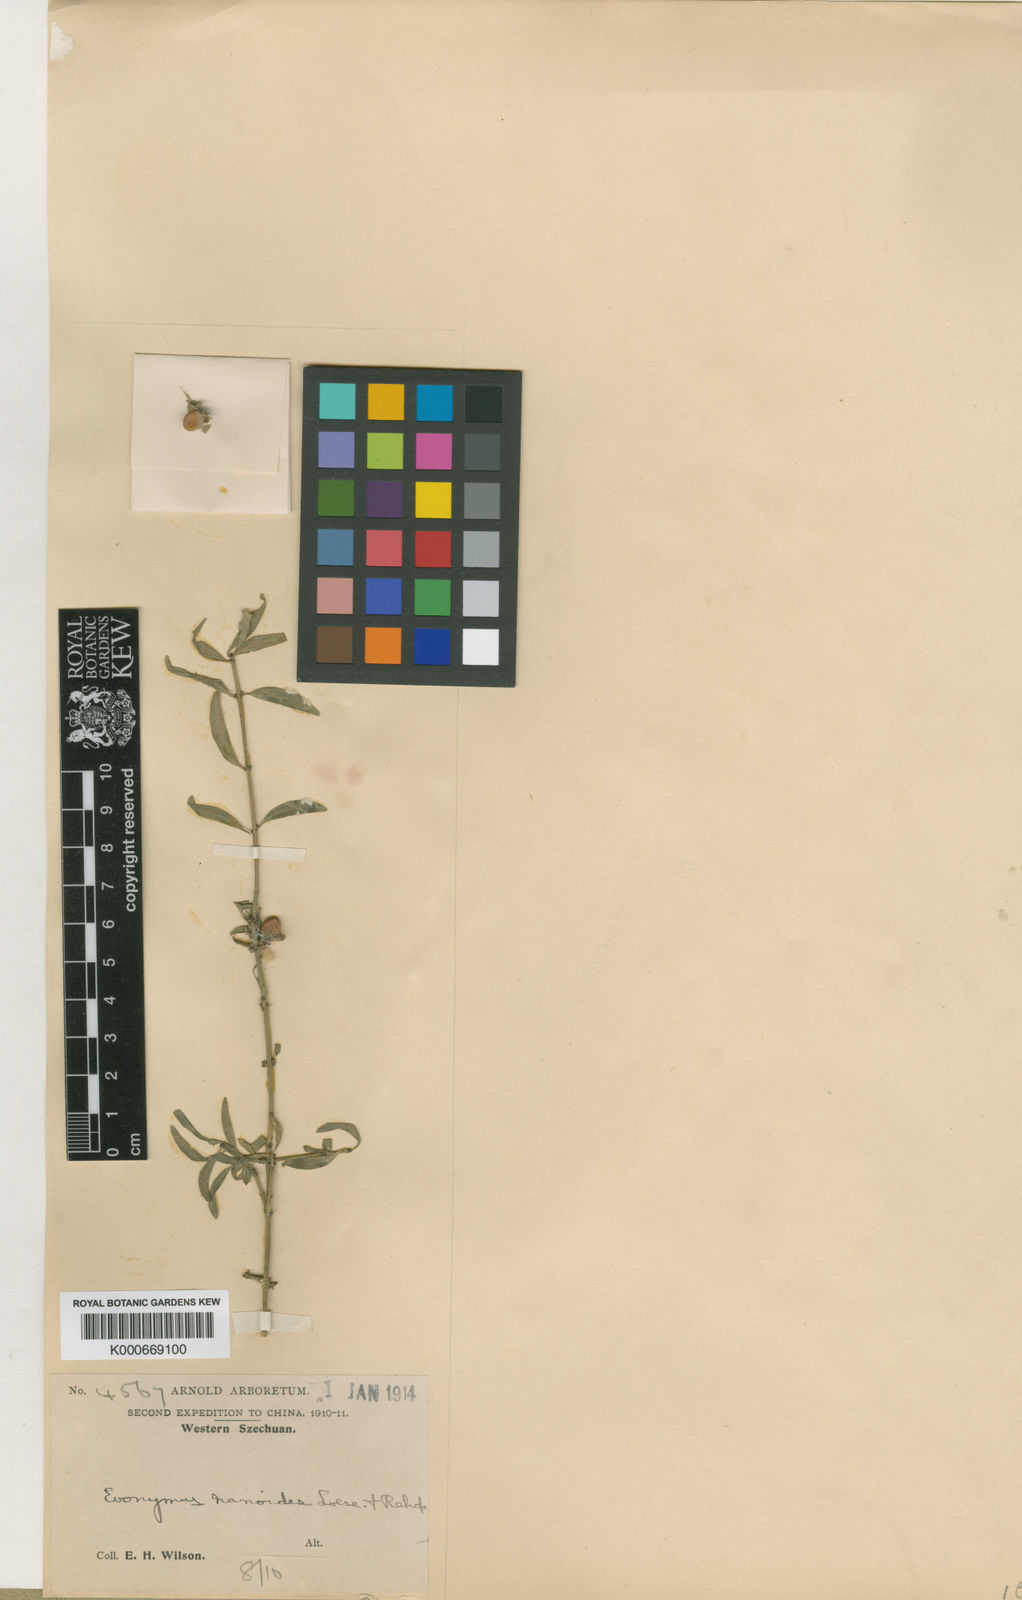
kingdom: Plantae
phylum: Tracheophyta
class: Magnoliopsida
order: Celastrales
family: Celastraceae
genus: Euonymus
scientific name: Euonymus nanoides
